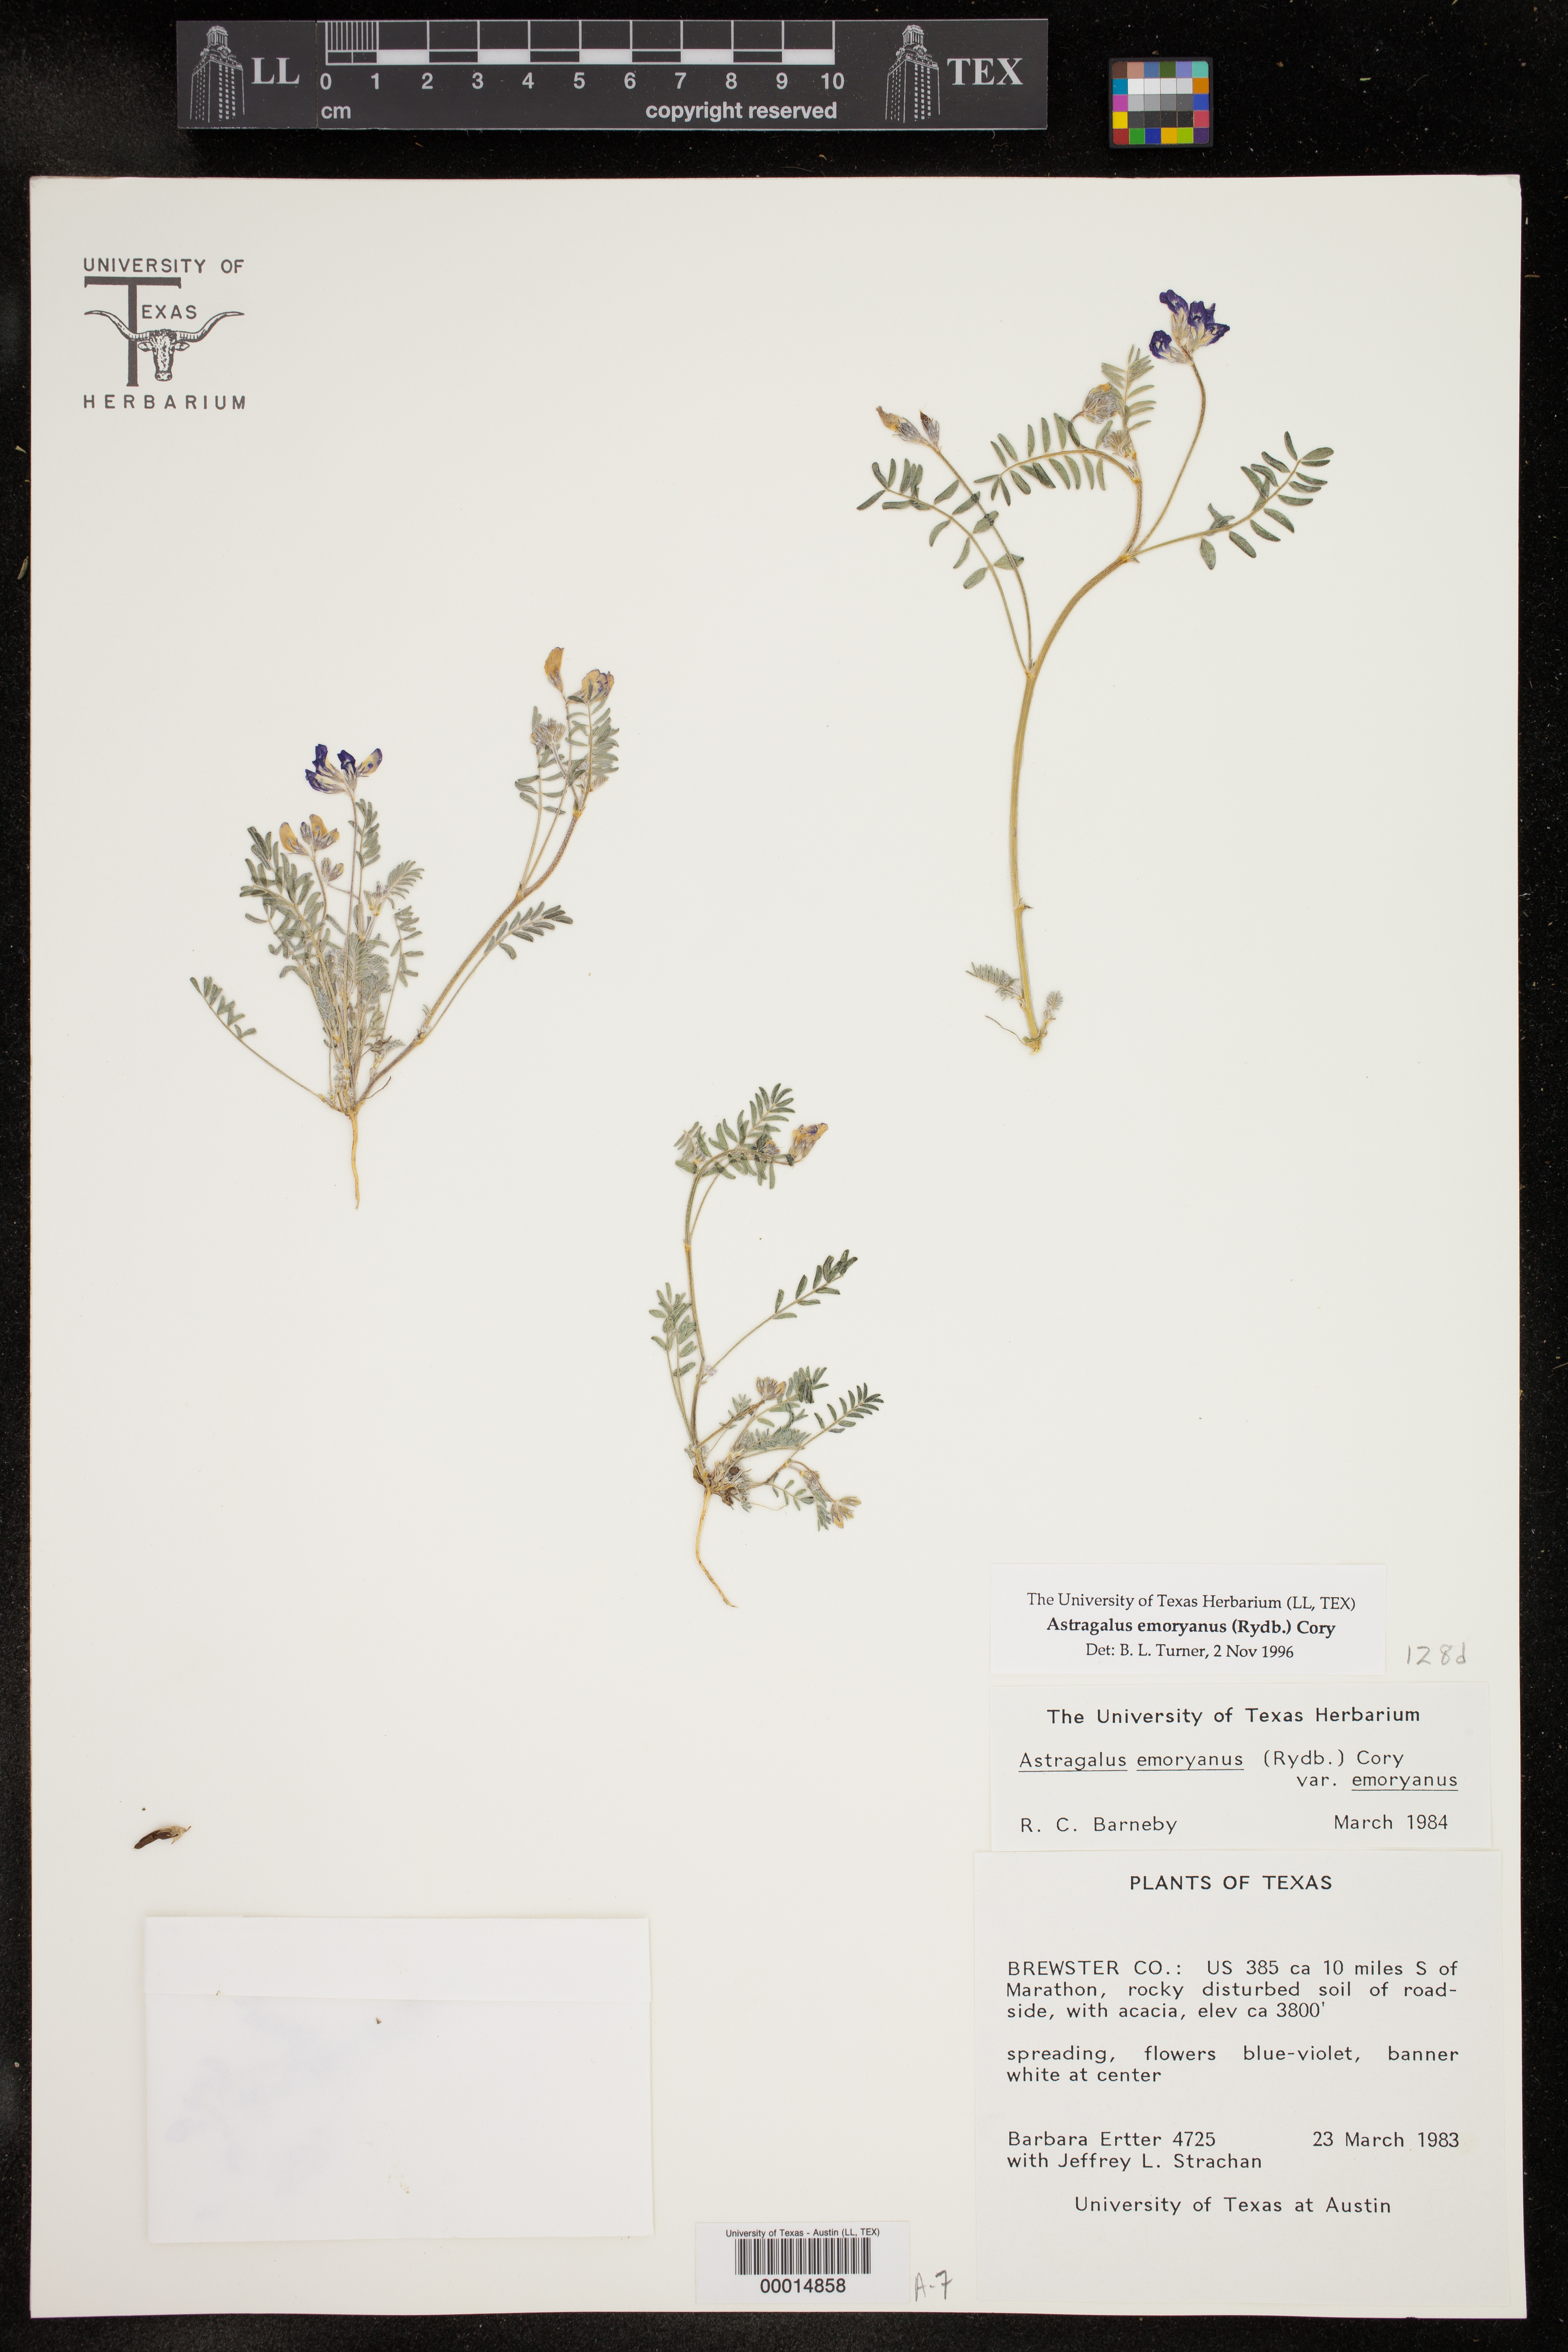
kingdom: Plantae
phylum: Tracheophyta
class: Magnoliopsida
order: Fabales
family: Fabaceae
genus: Astragalus
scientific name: Astragalus emoryanus
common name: Emory's milk-vetch
